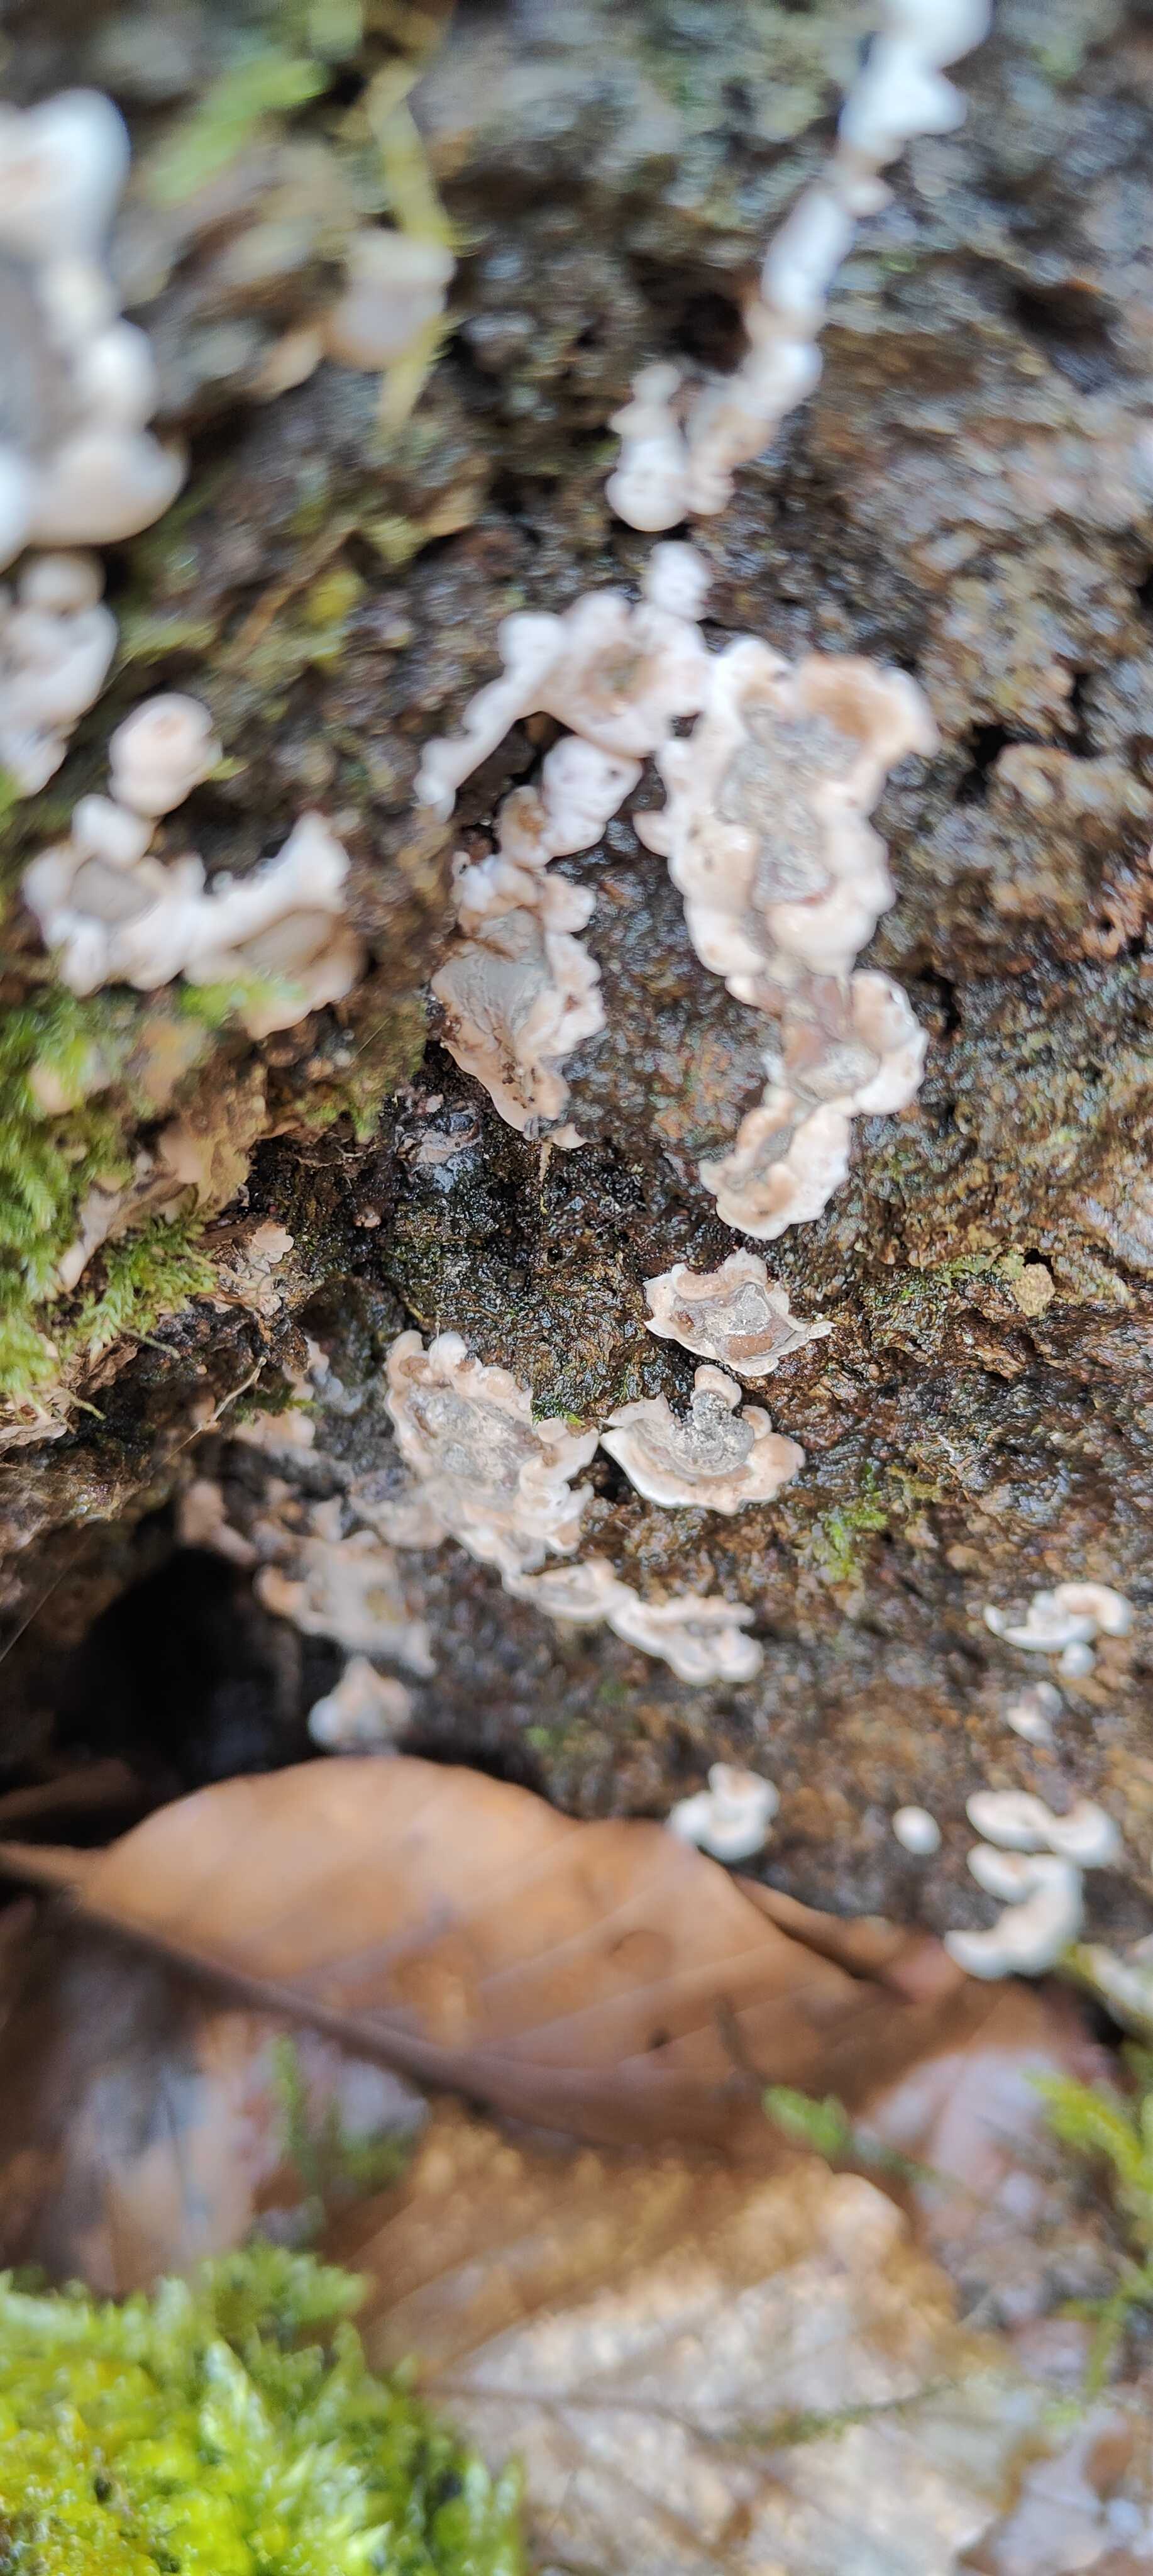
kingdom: Fungi
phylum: Ascomycota
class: Sordariomycetes
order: Xylariales
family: Xylariaceae
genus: Kretzschmaria
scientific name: Kretzschmaria deusta
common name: stor kulsvamp
